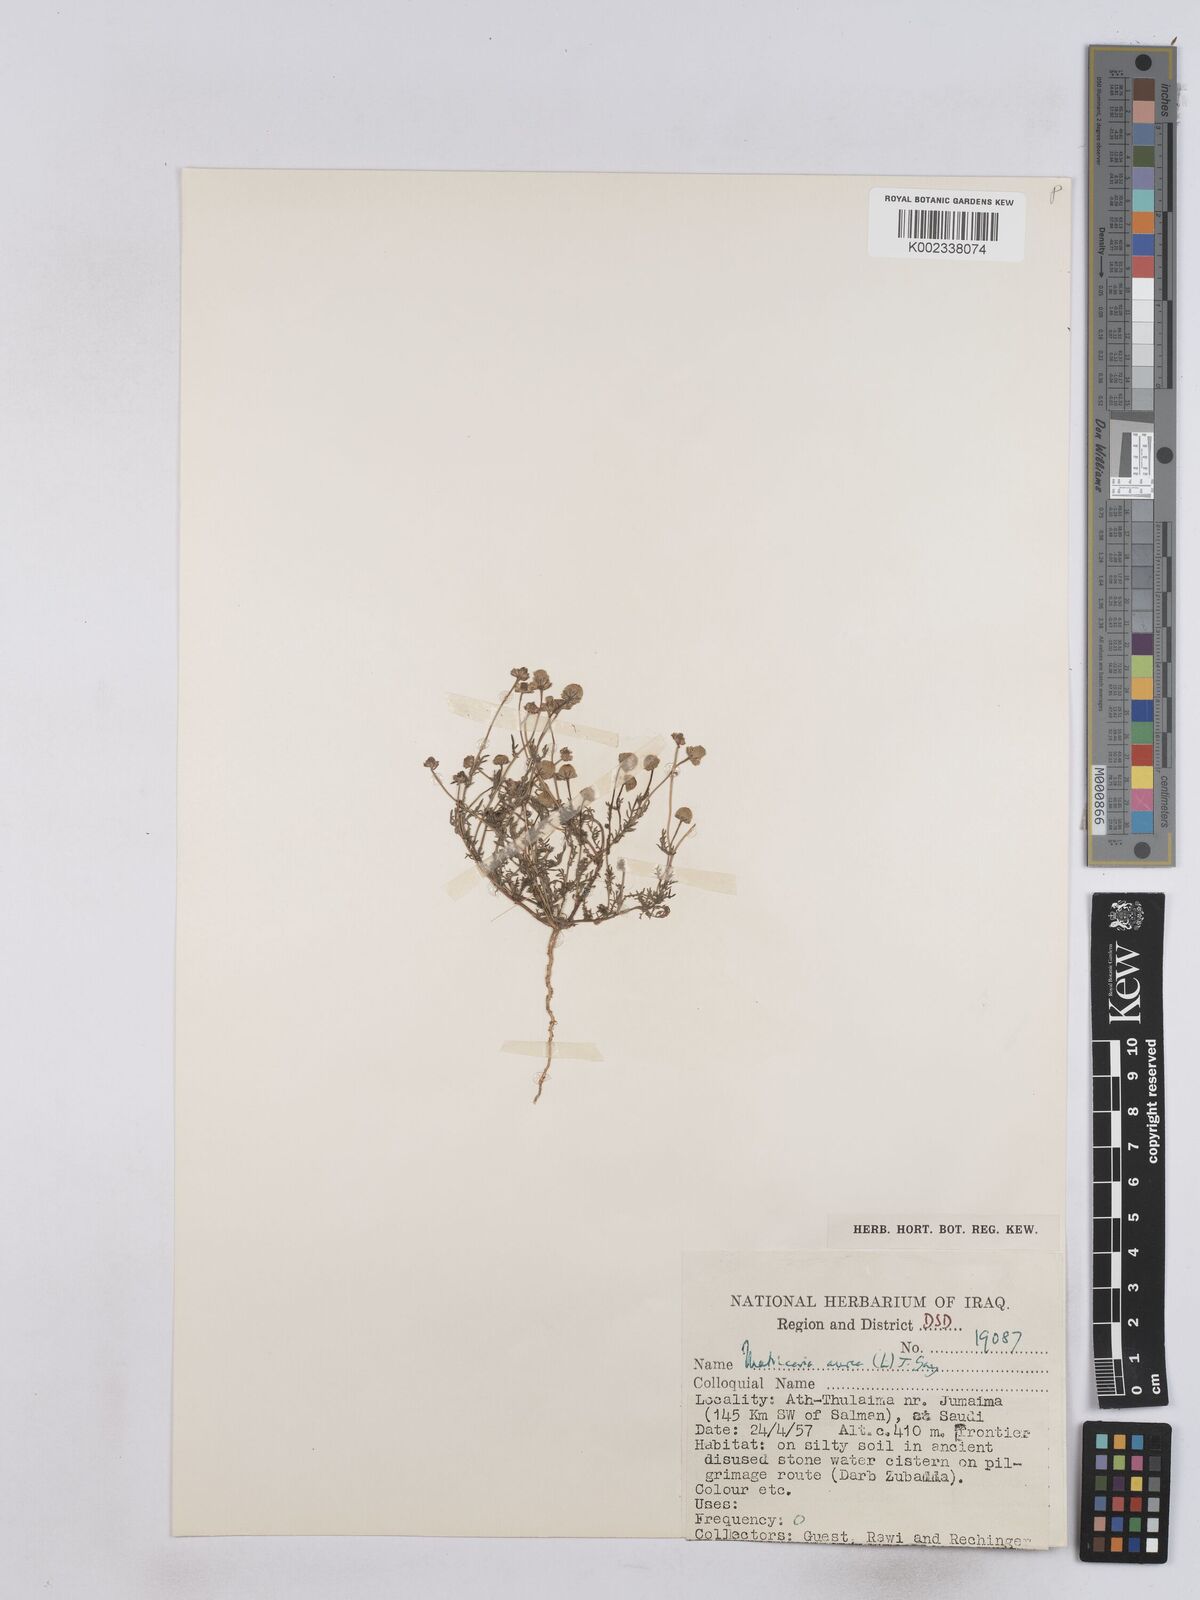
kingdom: Plantae
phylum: Tracheophyta
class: Magnoliopsida
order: Asterales
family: Asteraceae
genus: Matricaria
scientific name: Matricaria aurea
